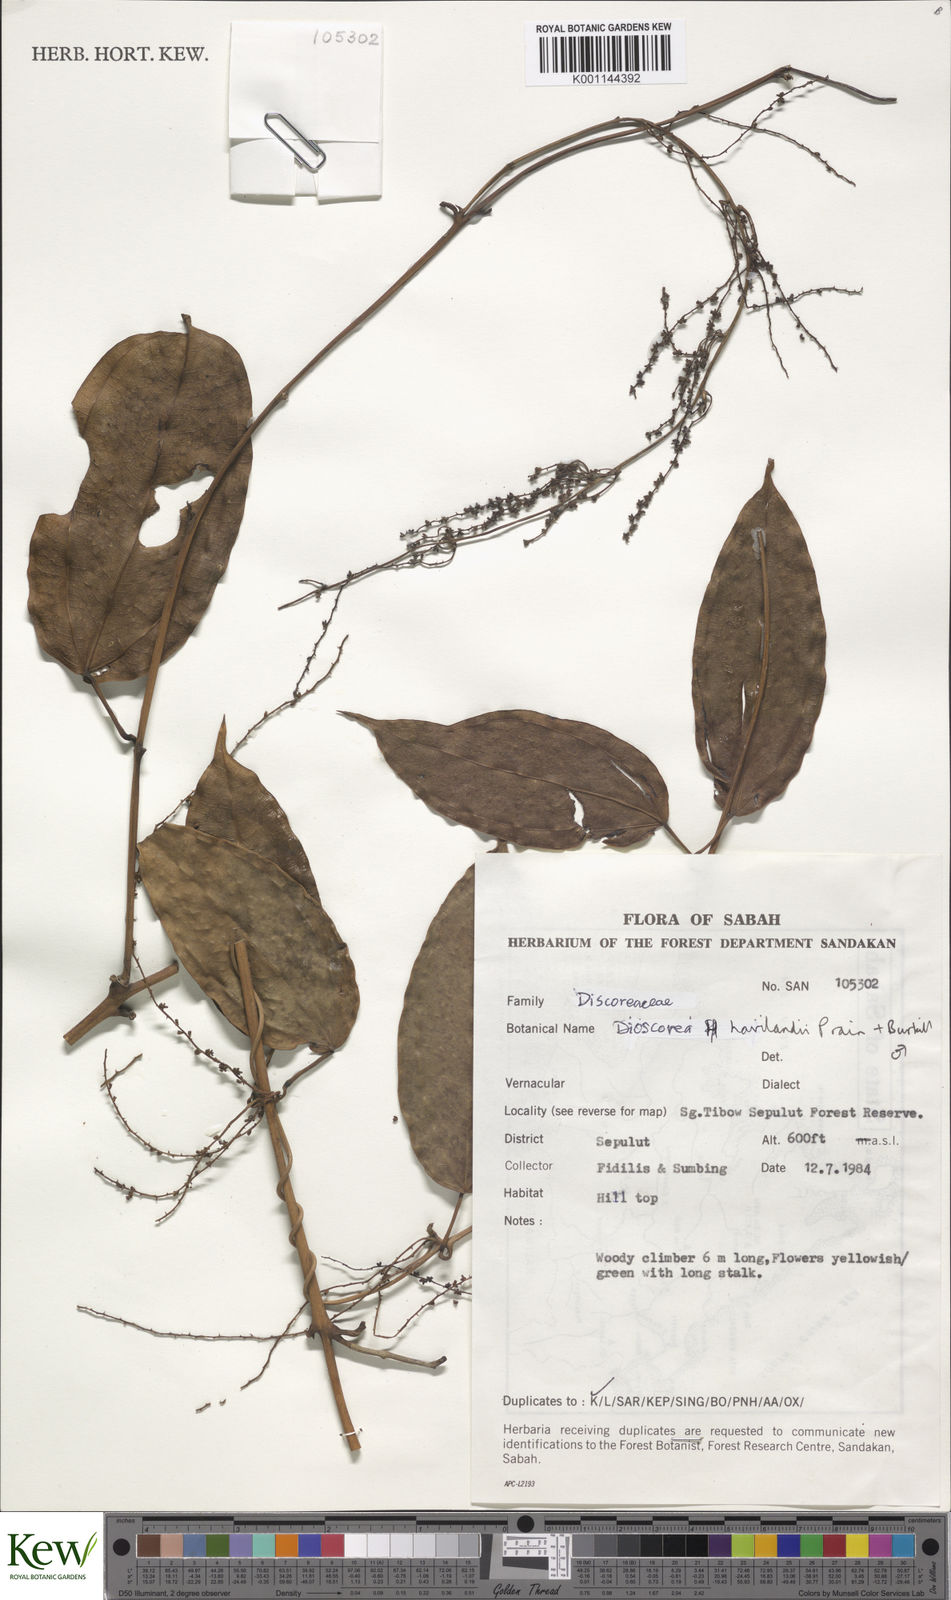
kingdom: Plantae
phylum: Tracheophyta
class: Liliopsida
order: Dioscoreales
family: Dioscoreaceae
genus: Dioscorea
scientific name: Dioscorea havilandii
